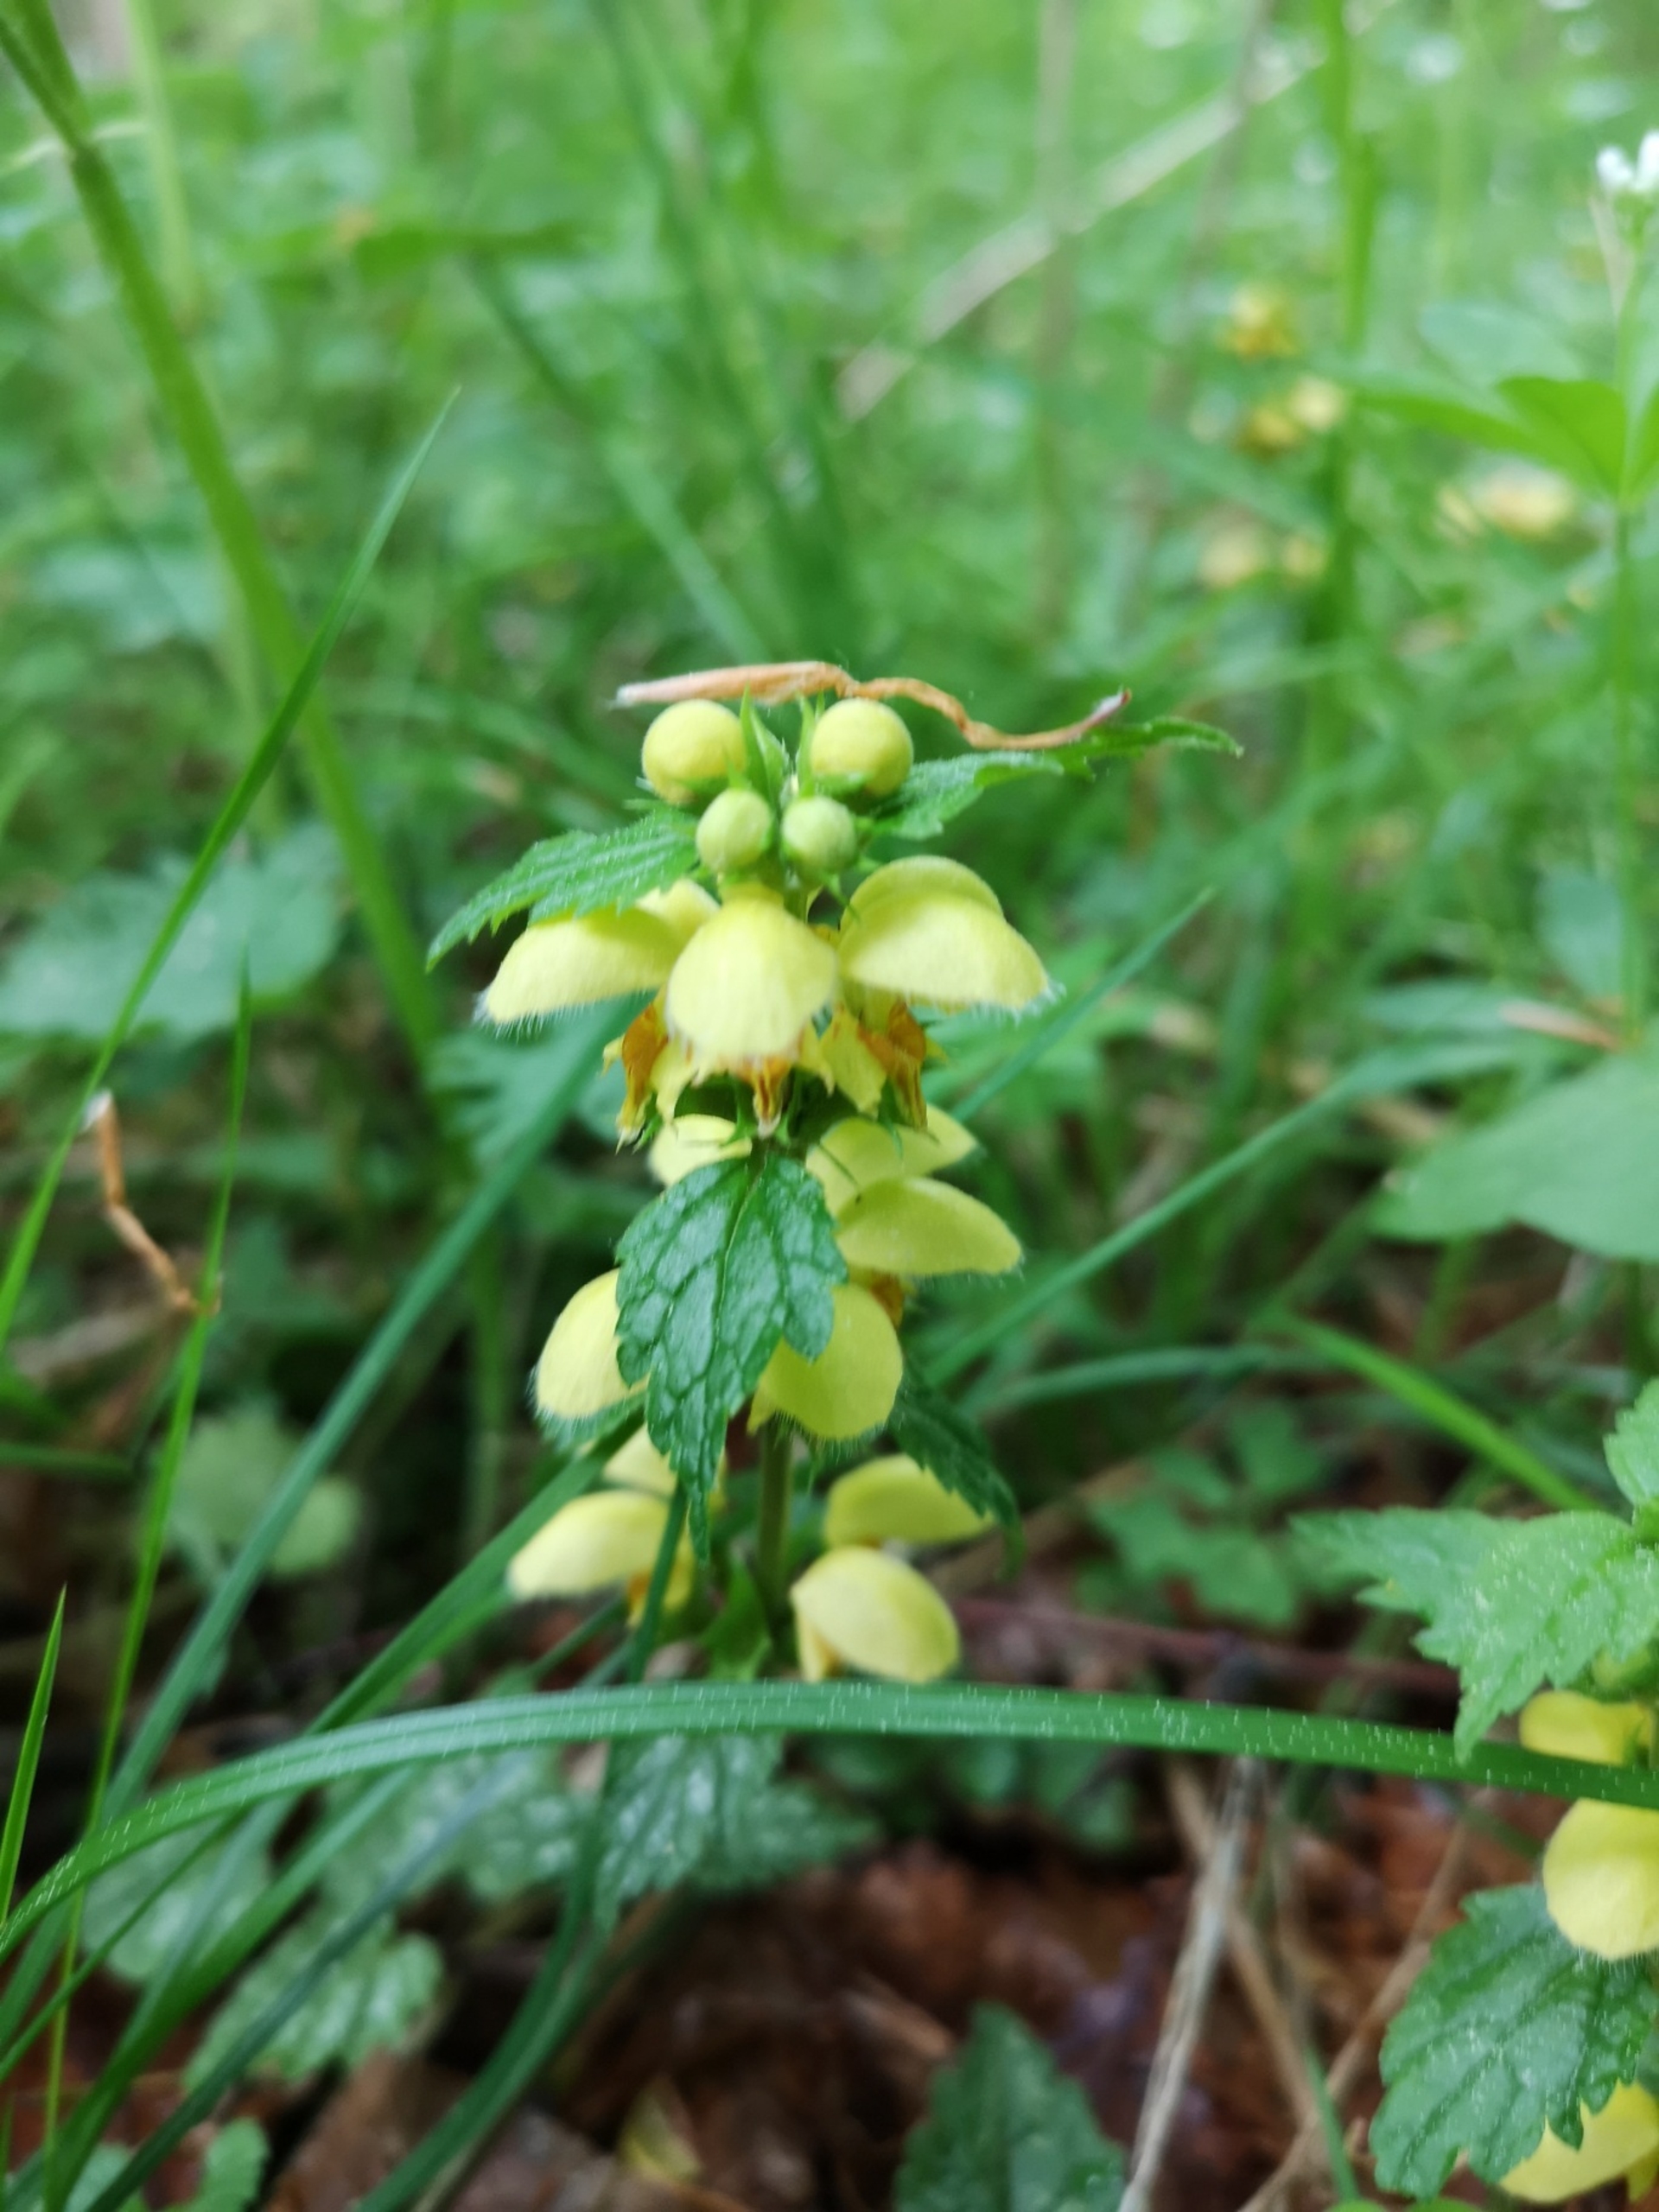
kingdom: Plantae
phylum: Tracheophyta
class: Magnoliopsida
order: Lamiales
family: Lamiaceae
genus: Lamium
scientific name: Lamium galeobdolon
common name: Guldnælde
